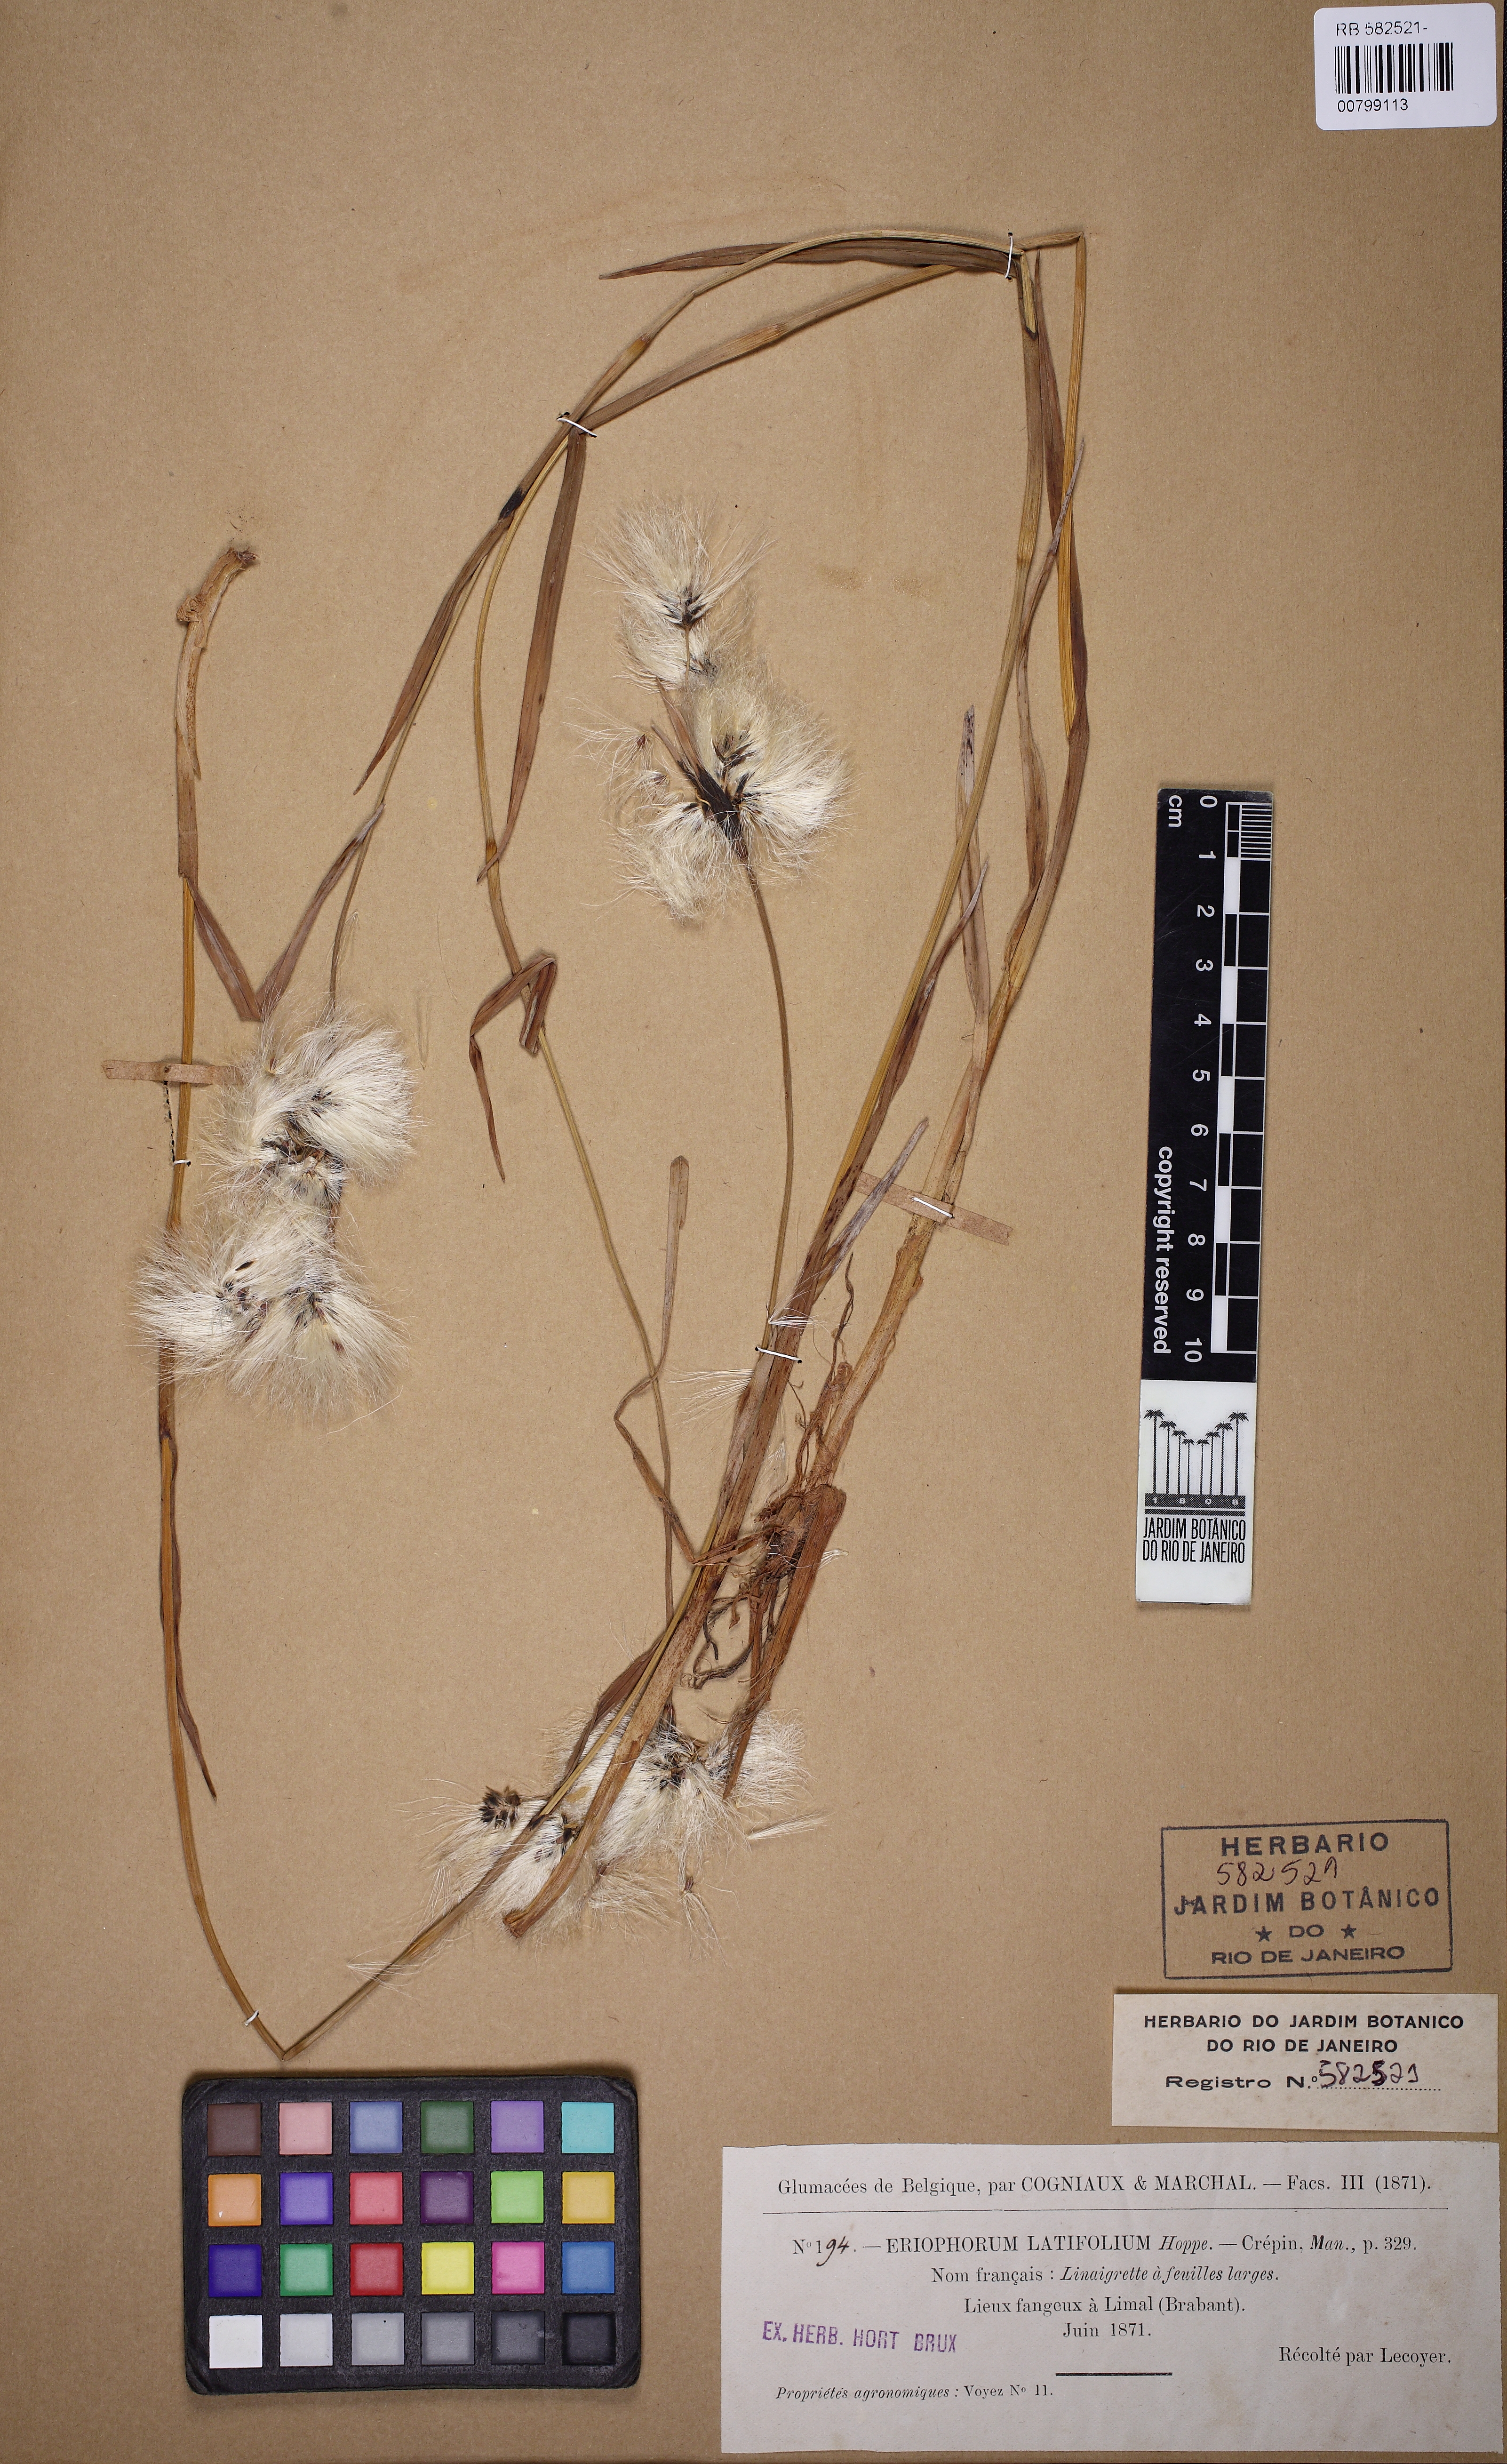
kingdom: Plantae
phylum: Tracheophyta
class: Liliopsida
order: Poales
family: Cyperaceae
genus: Eriophorum
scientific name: Eriophorum latifolium
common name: Broad-leaved cottongrass
